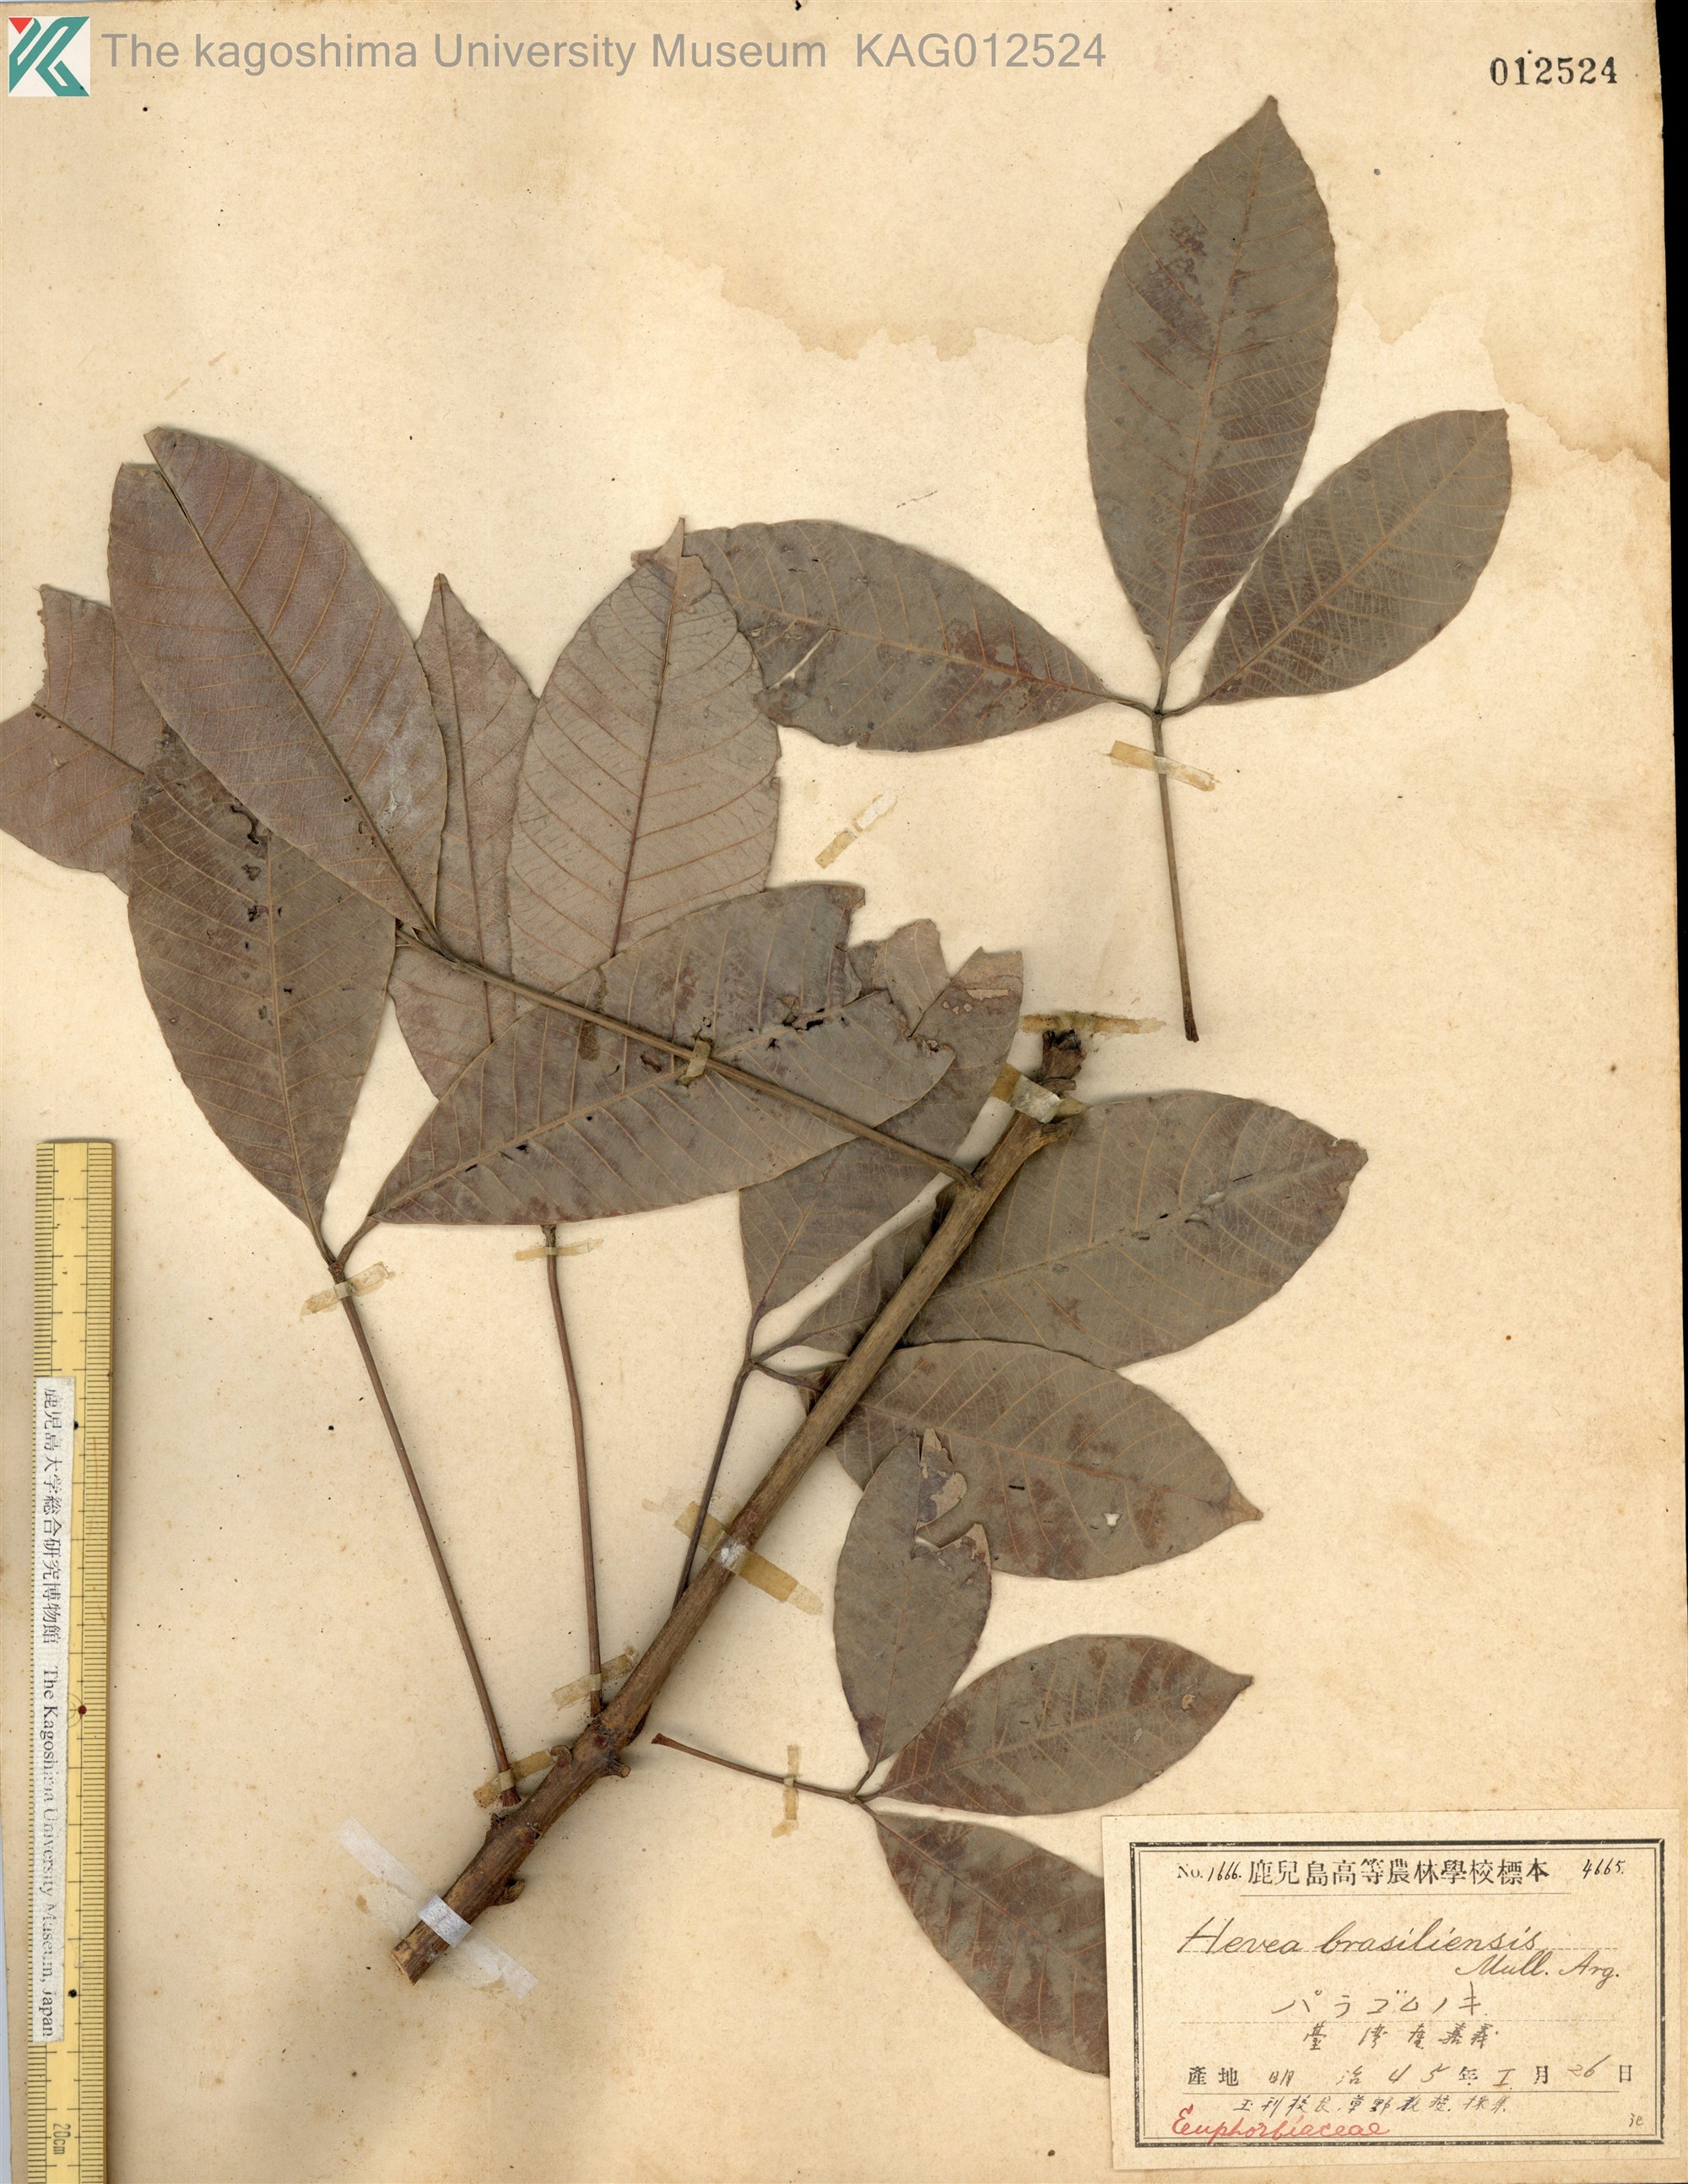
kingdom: Plantae
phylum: Tracheophyta
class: Magnoliopsida
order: Malpighiales
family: Euphorbiaceae
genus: Hevea
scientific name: Hevea brasiliensis
